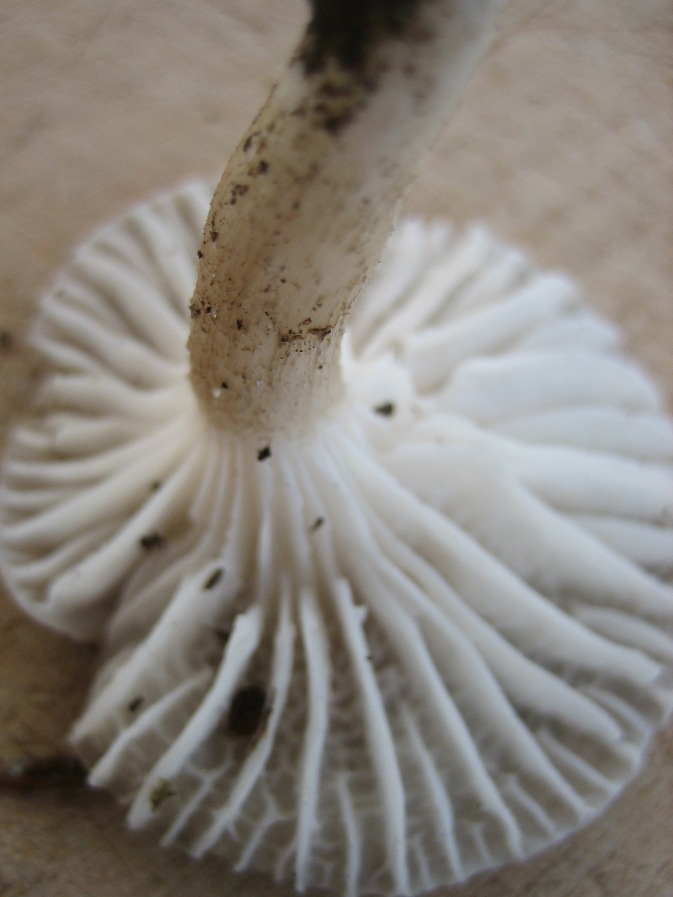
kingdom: Fungi
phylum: Basidiomycota
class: Agaricomycetes
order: Agaricales
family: Hygrophoraceae
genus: Hygrophorus
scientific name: Hygrophorus pustulatus
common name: mørkprikket sneglehat
